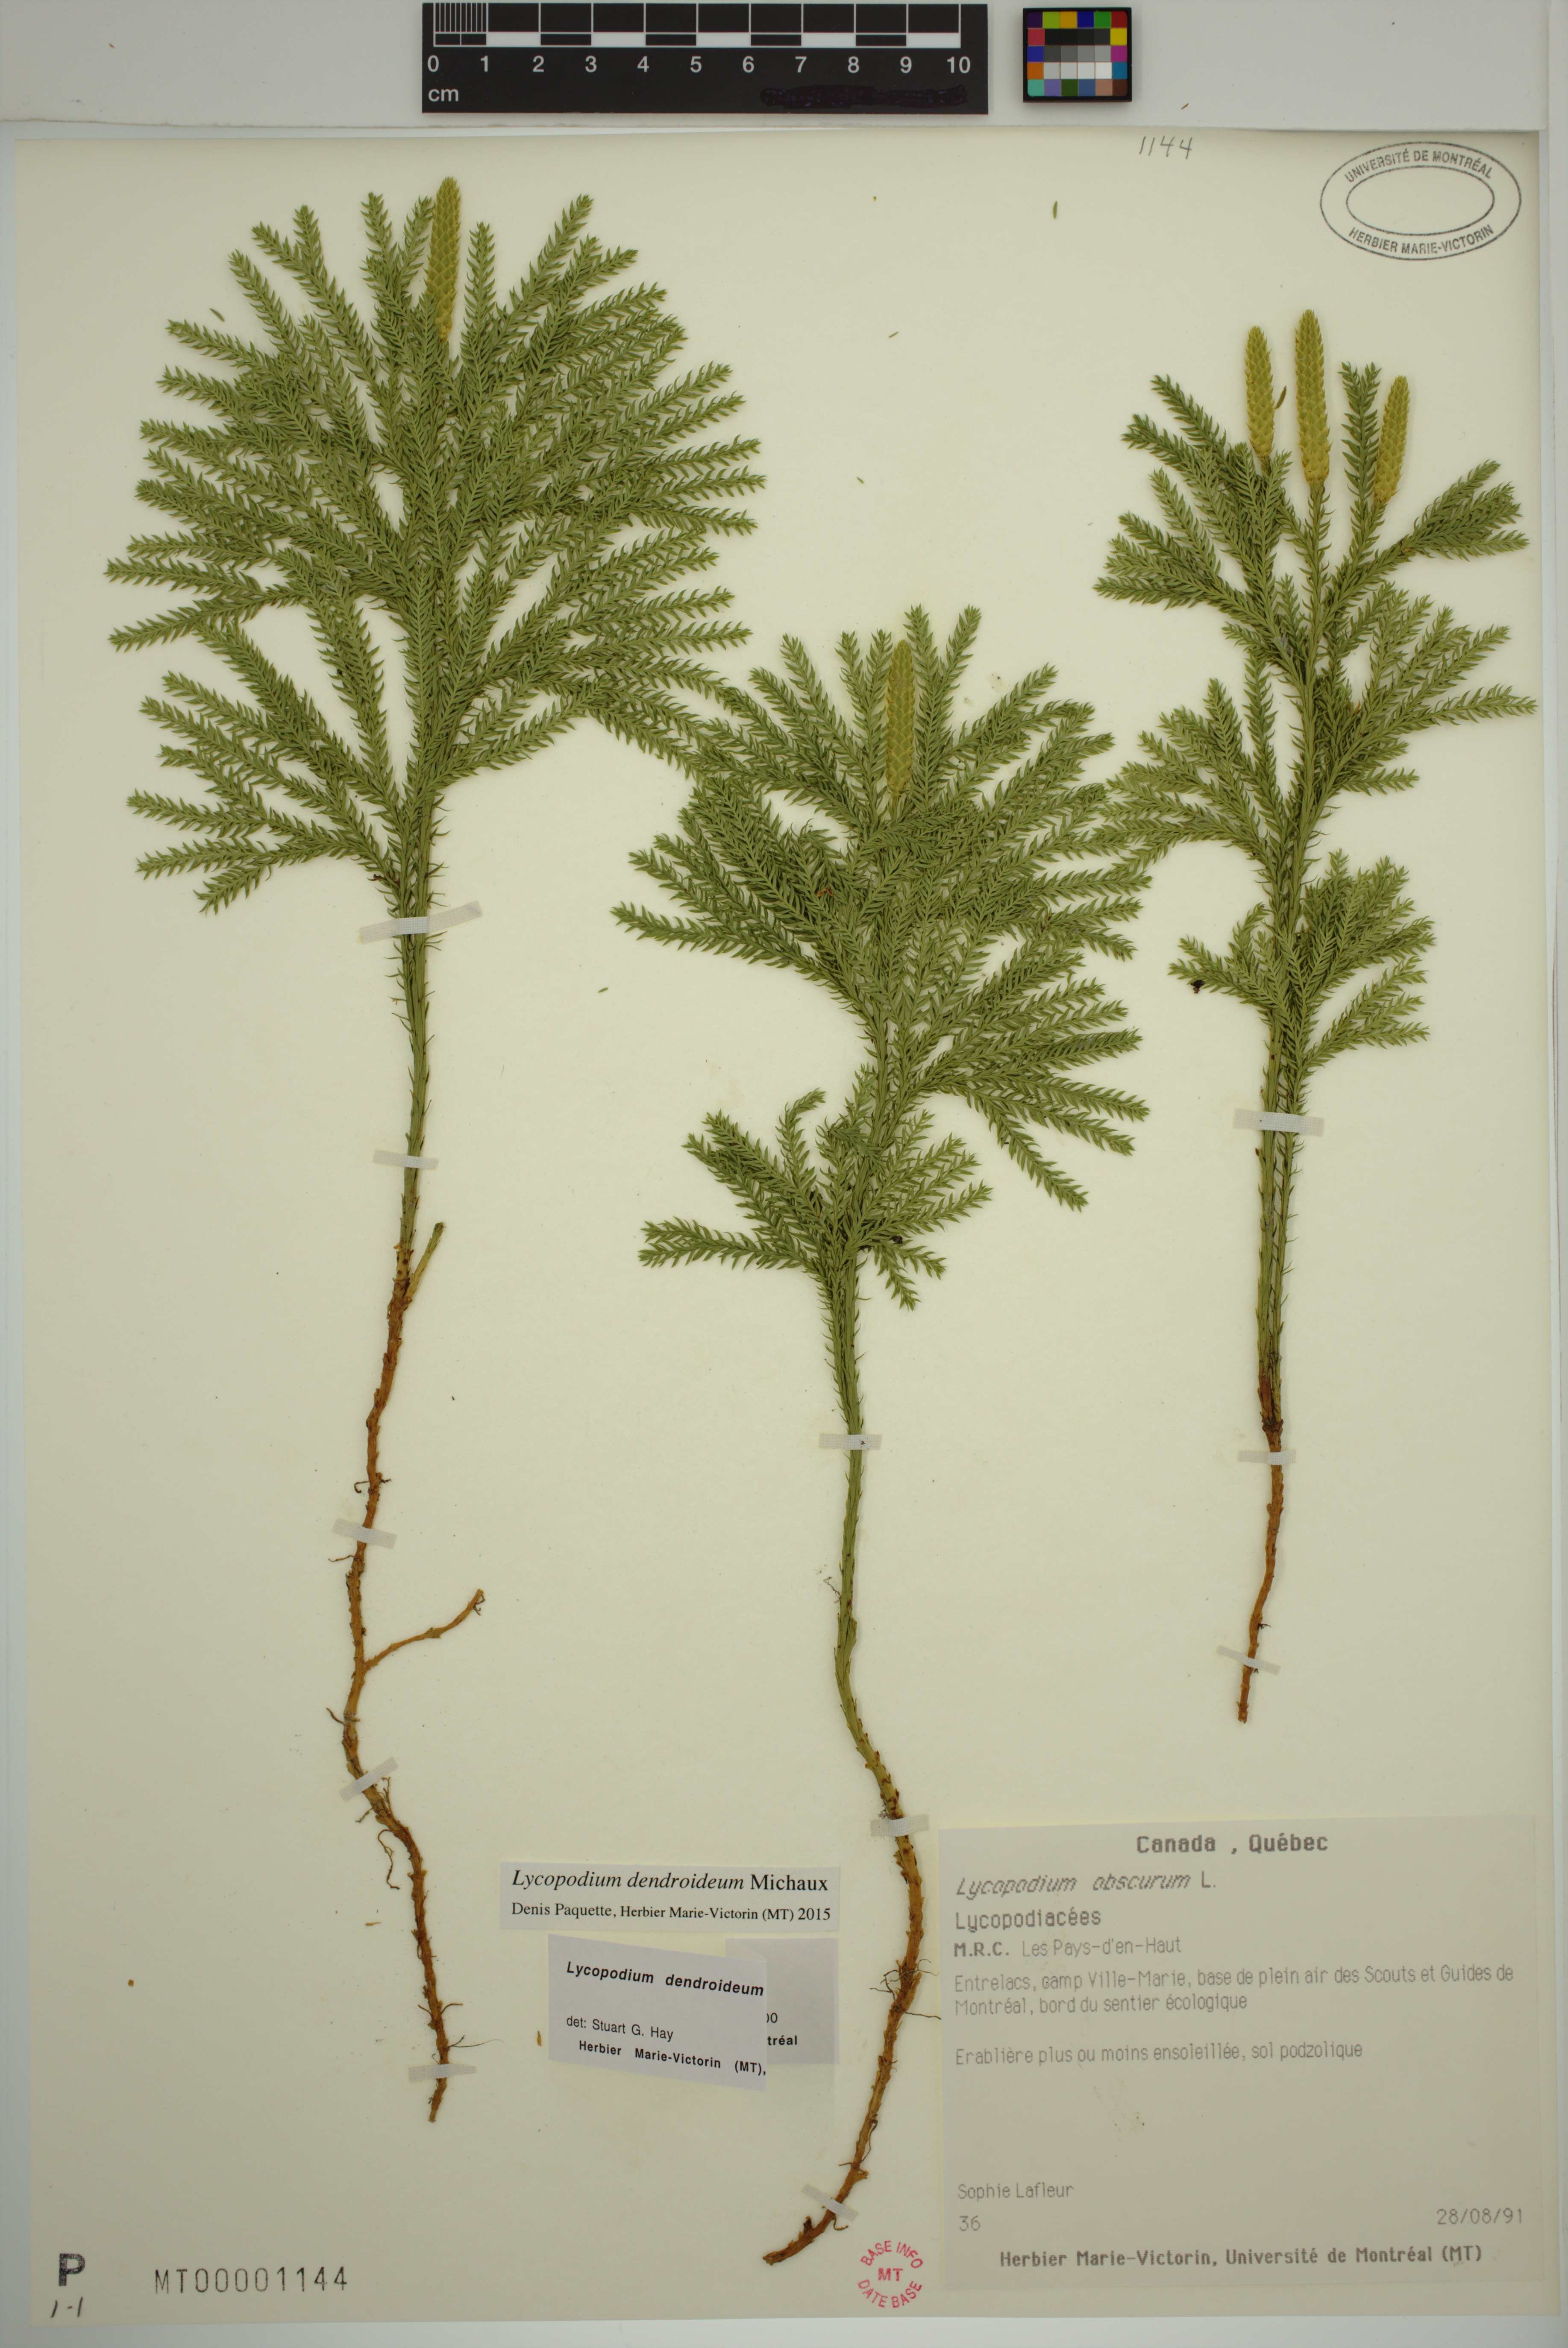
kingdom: Plantae
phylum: Tracheophyta
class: Lycopodiopsida
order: Lycopodiales
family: Lycopodiaceae
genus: Dendrolycopodium
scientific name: Dendrolycopodium dendroideum
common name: Northern tree-clubmoss
